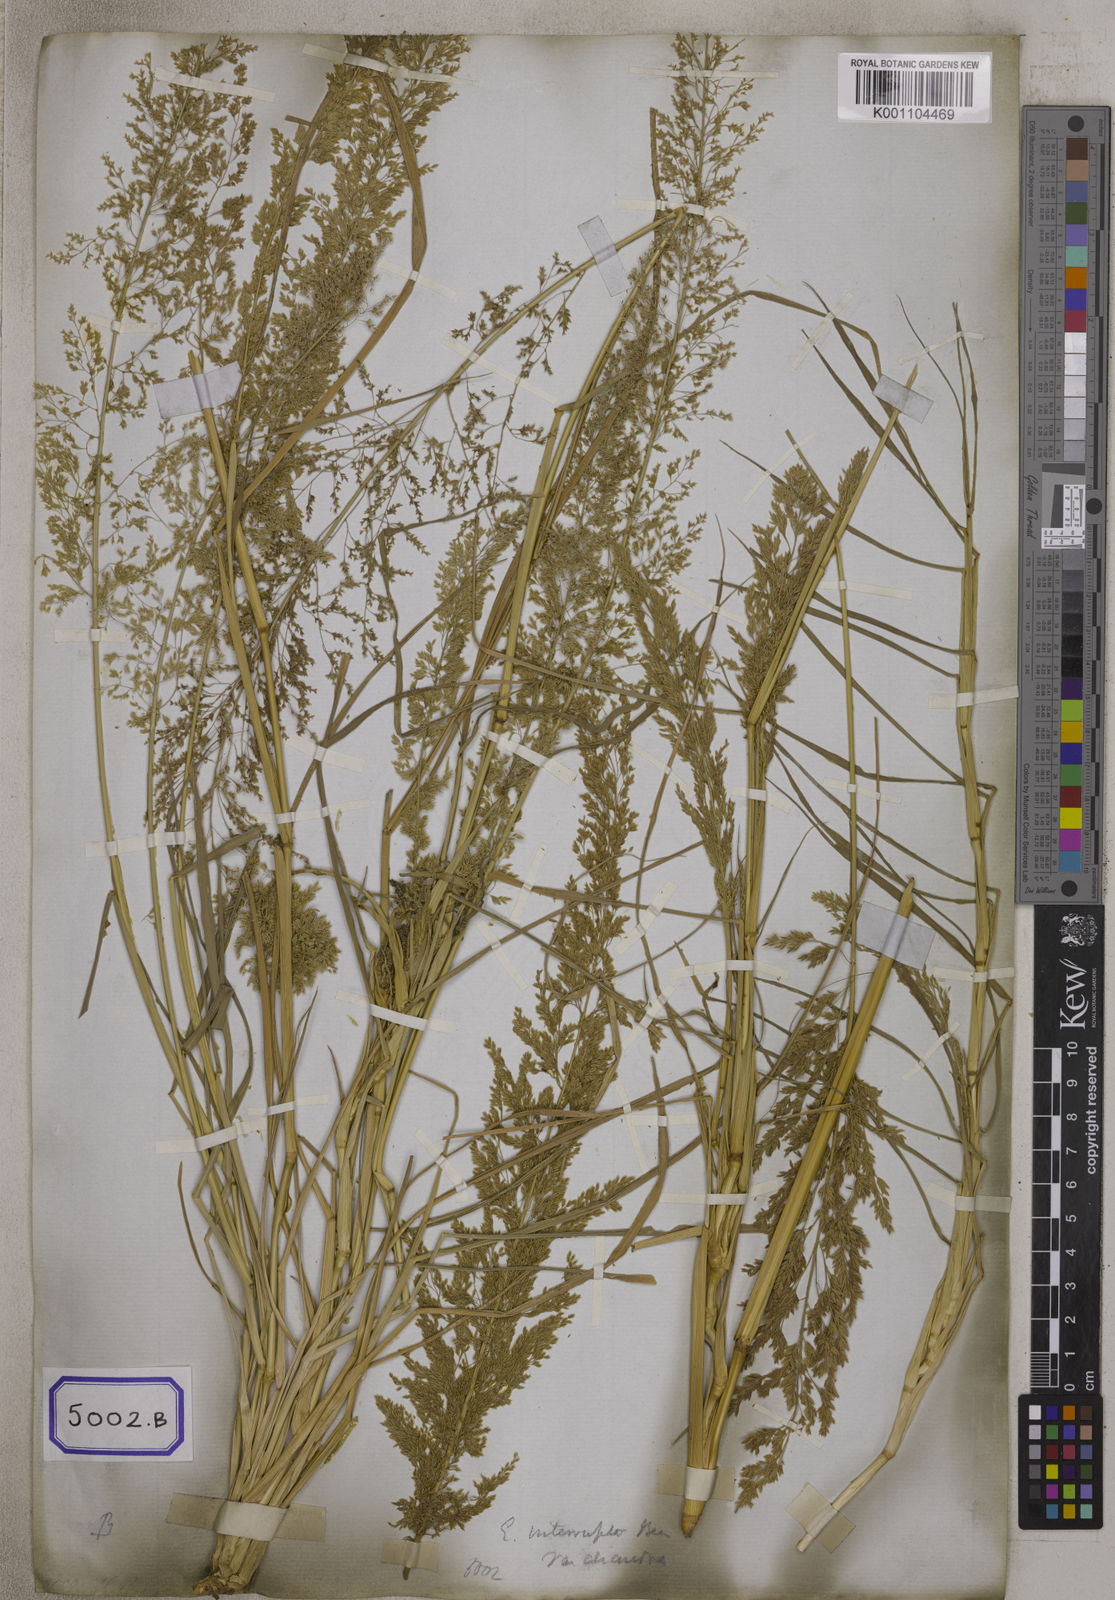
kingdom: Plantae
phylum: Tracheophyta
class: Liliopsida
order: Poales
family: Poaceae
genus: Eragrostis
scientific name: Eragrostis
